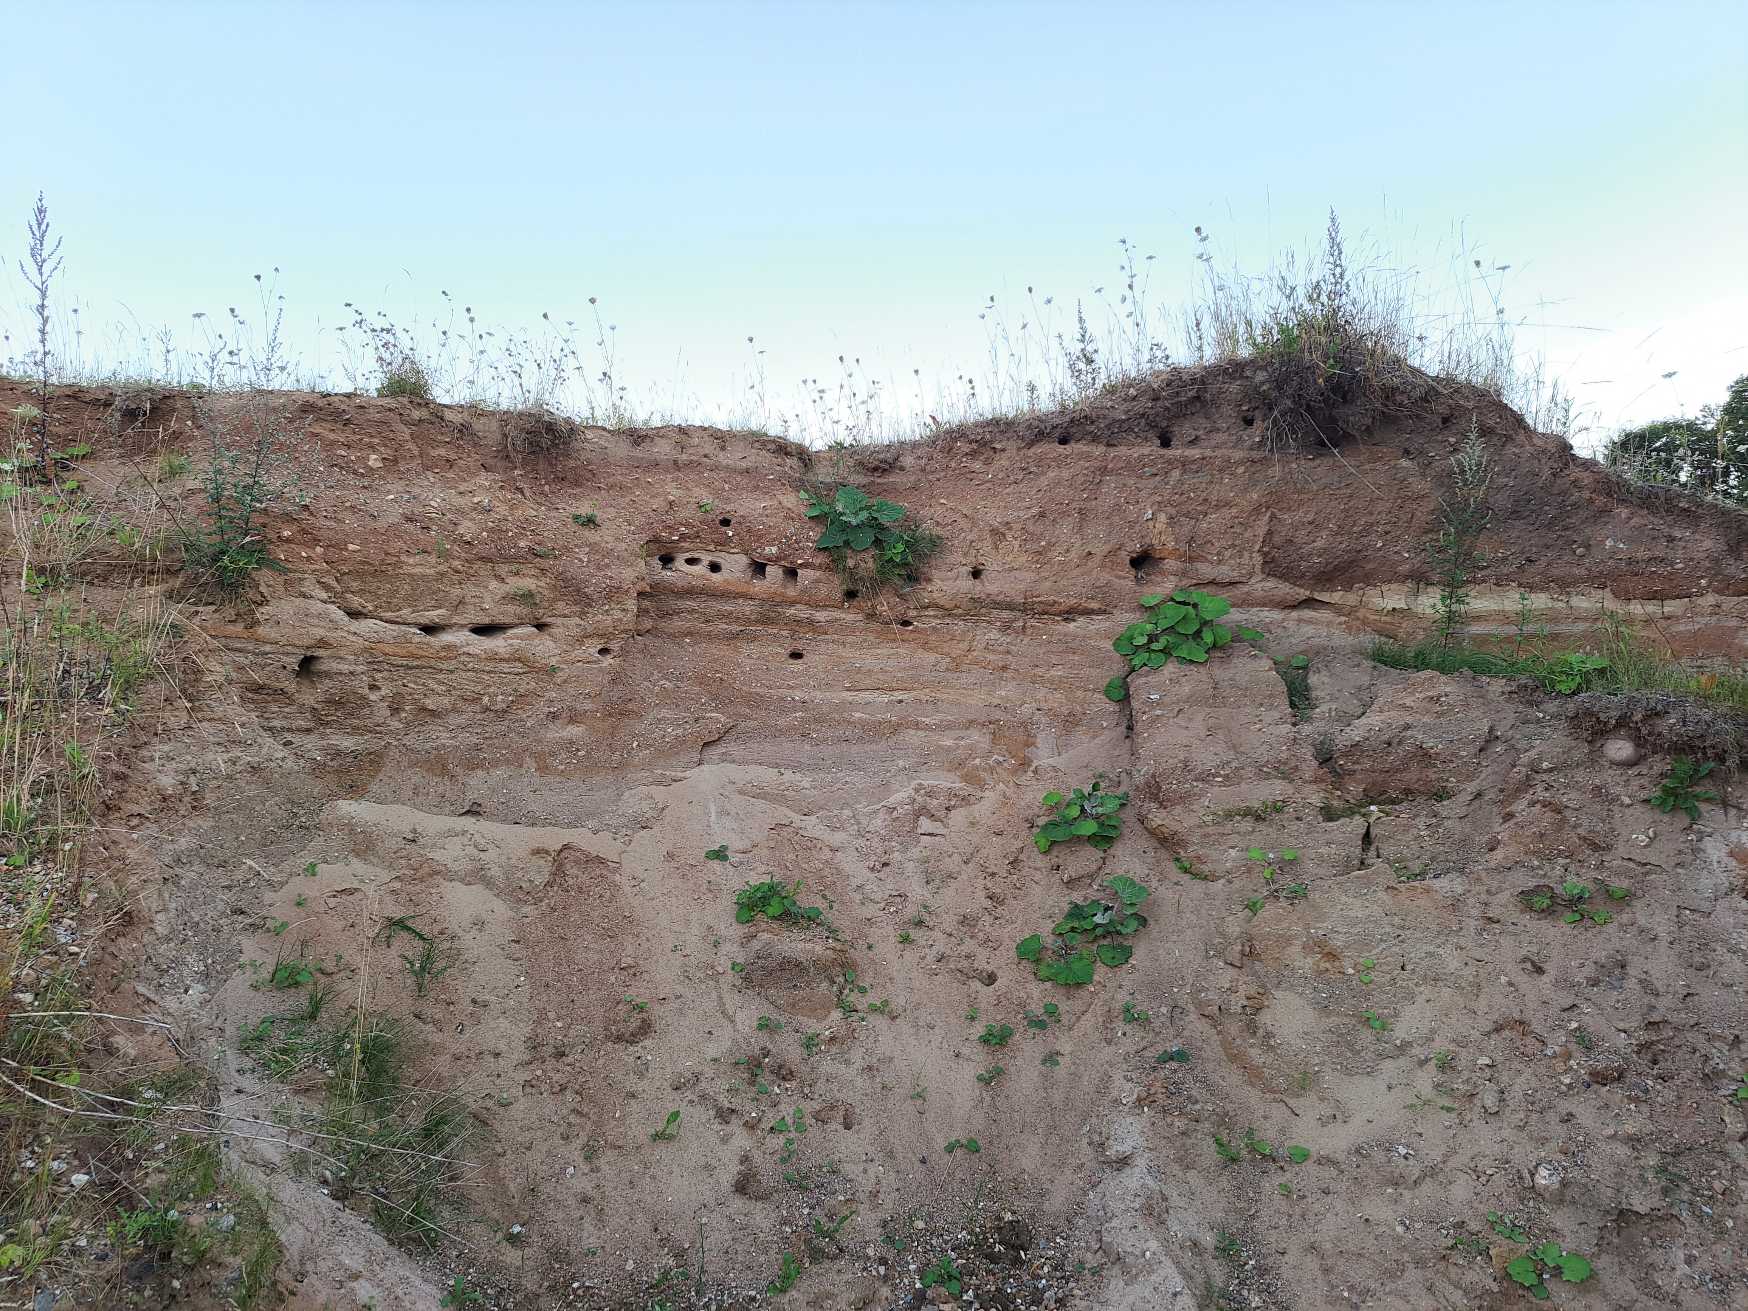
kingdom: Animalia
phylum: Chordata
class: Aves
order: Passeriformes
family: Hirundinidae
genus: Riparia
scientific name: Riparia riparia
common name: Digesvale
